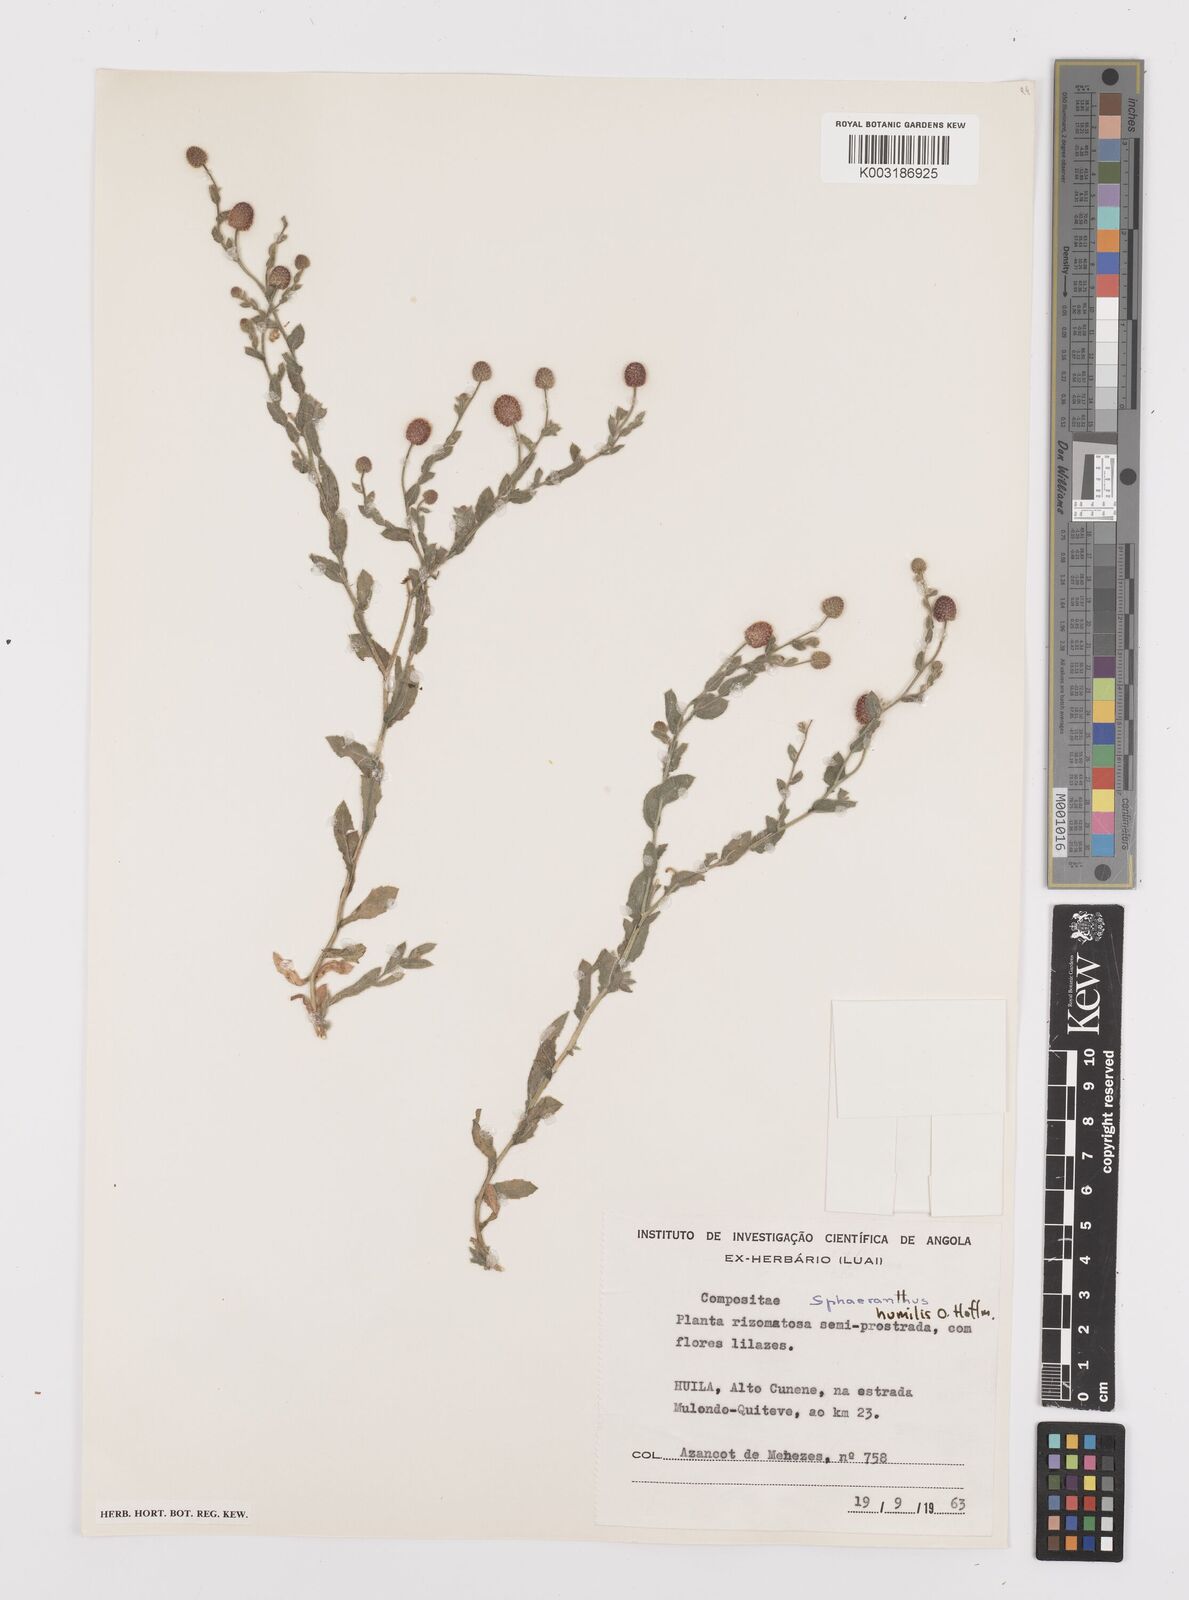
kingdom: Plantae
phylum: Tracheophyta
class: Magnoliopsida
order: Asterales
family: Asteraceae
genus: Sphaeranthus
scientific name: Sphaeranthus flexuosus
